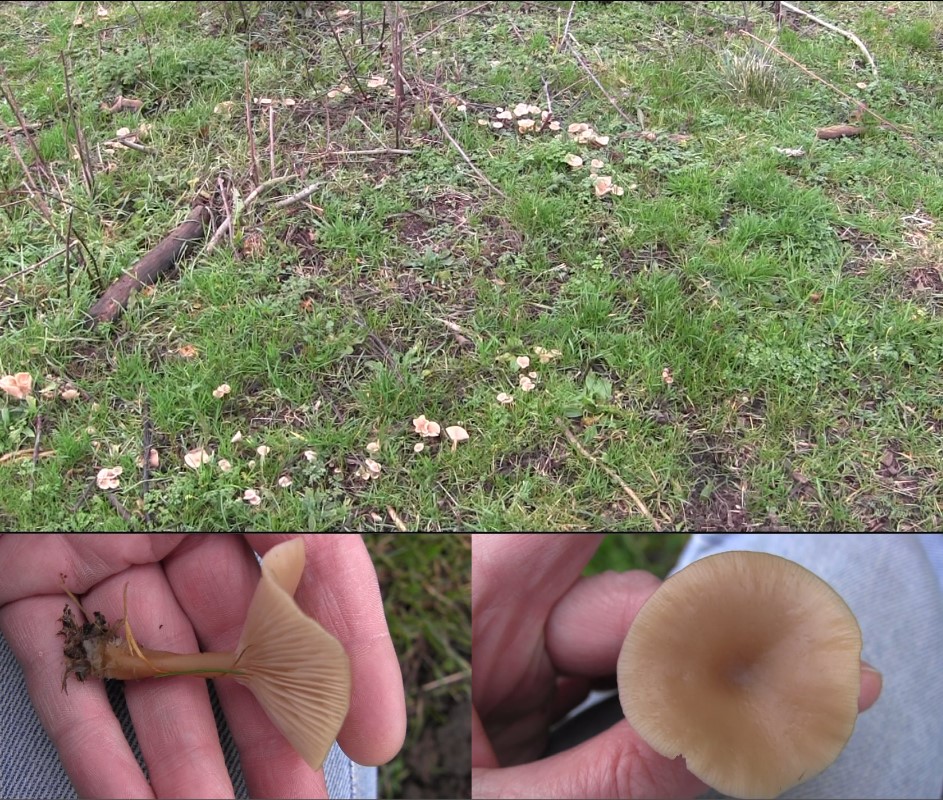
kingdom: Fungi
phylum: Basidiomycota
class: Agaricomycetes
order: Agaricales
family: Tricholomataceae
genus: Clitocybe
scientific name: Clitocybe fragrans
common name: vellugtende tragthat
